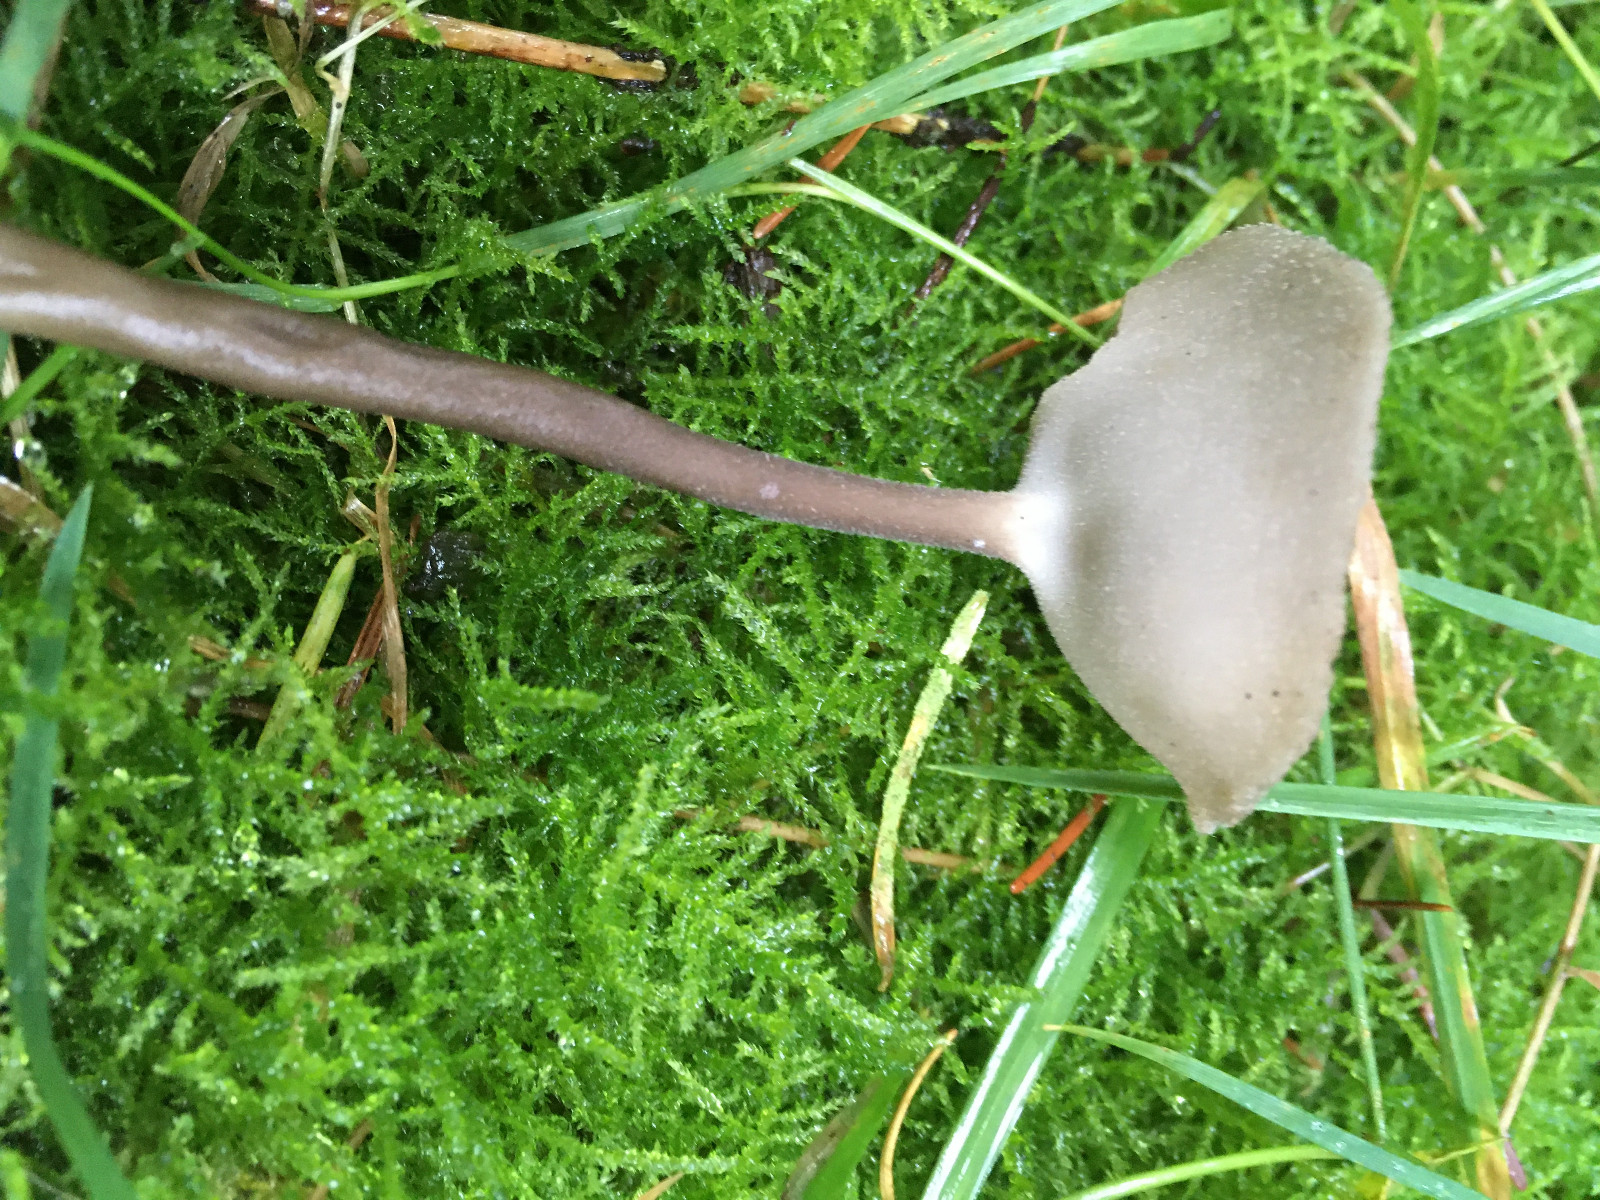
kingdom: Fungi
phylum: Ascomycota
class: Pezizomycetes
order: Pezizales
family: Helvellaceae
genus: Helvella
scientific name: Helvella macropus
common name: højstokket foldhat
